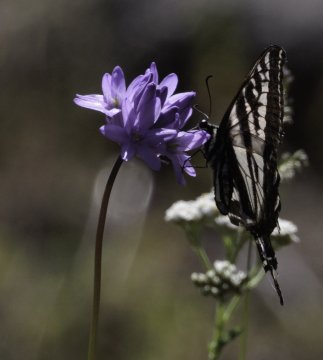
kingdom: Animalia
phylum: Arthropoda
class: Insecta
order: Lepidoptera
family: Papilionidae
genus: Pterourus
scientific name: Pterourus eurymedon
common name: Pale Swallowtail
